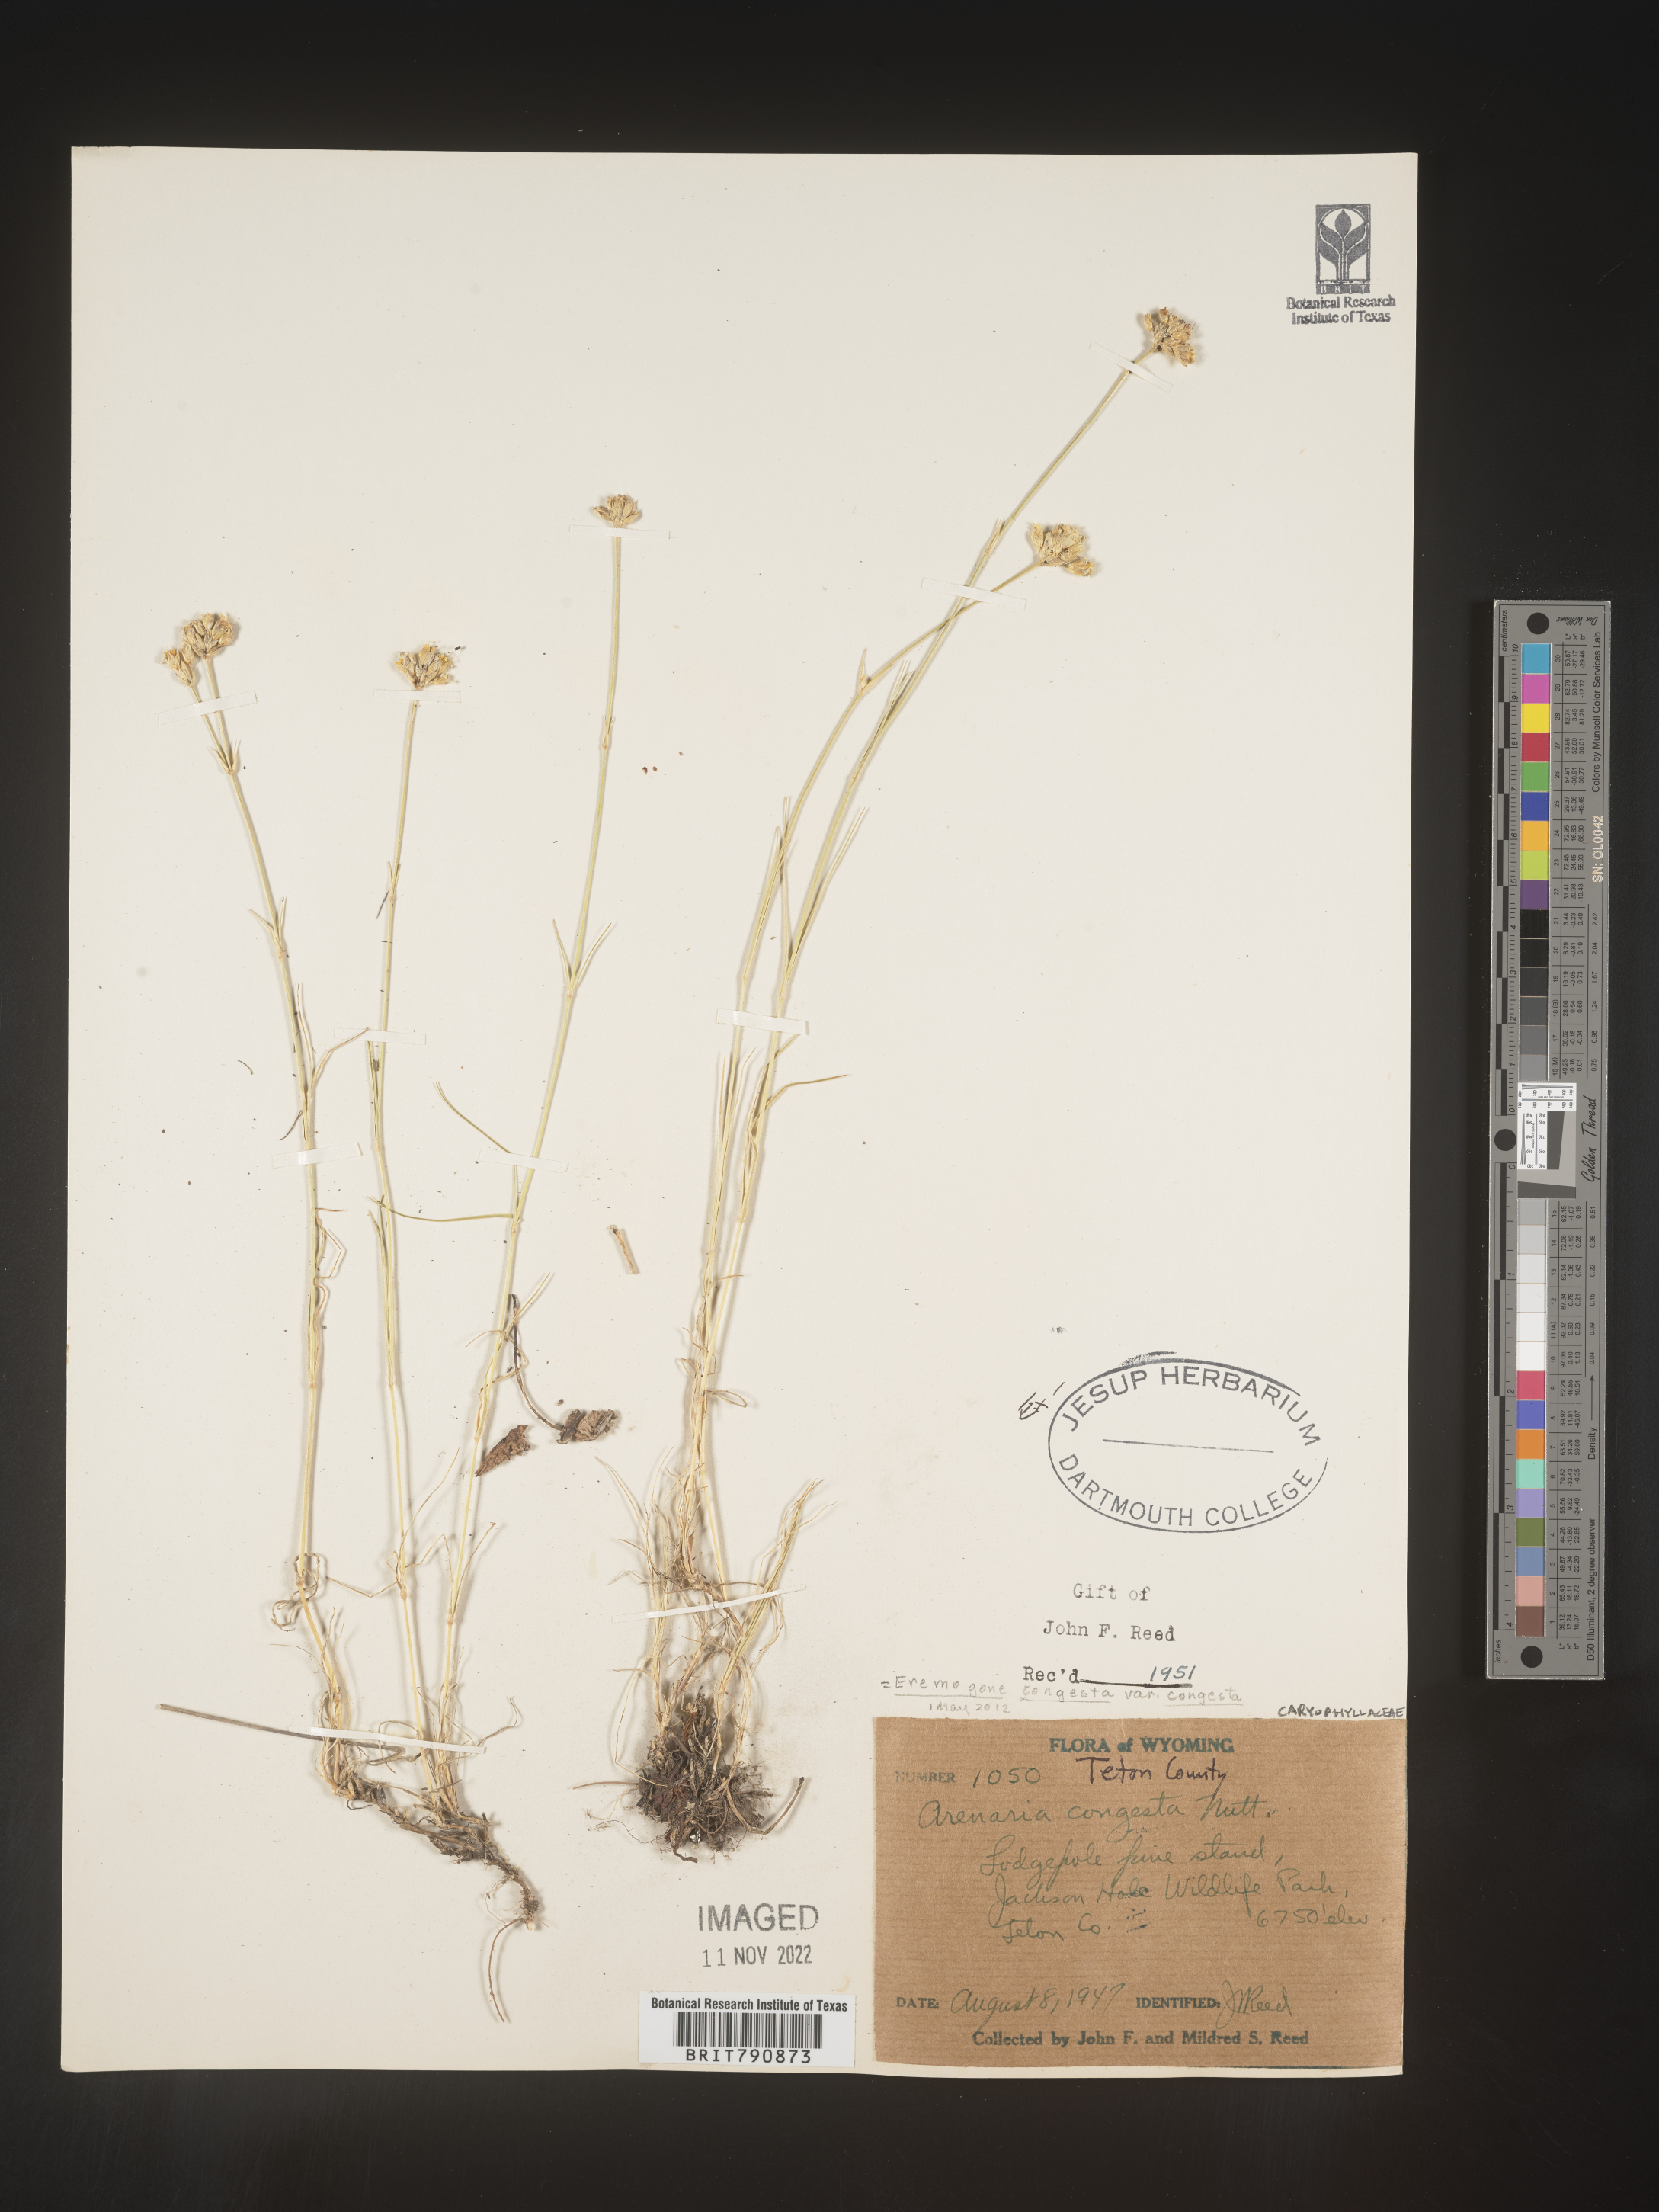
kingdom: Plantae
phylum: Tracheophyta
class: Magnoliopsida
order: Caryophyllales
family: Caryophyllaceae
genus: Eremogone
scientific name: Eremogone
